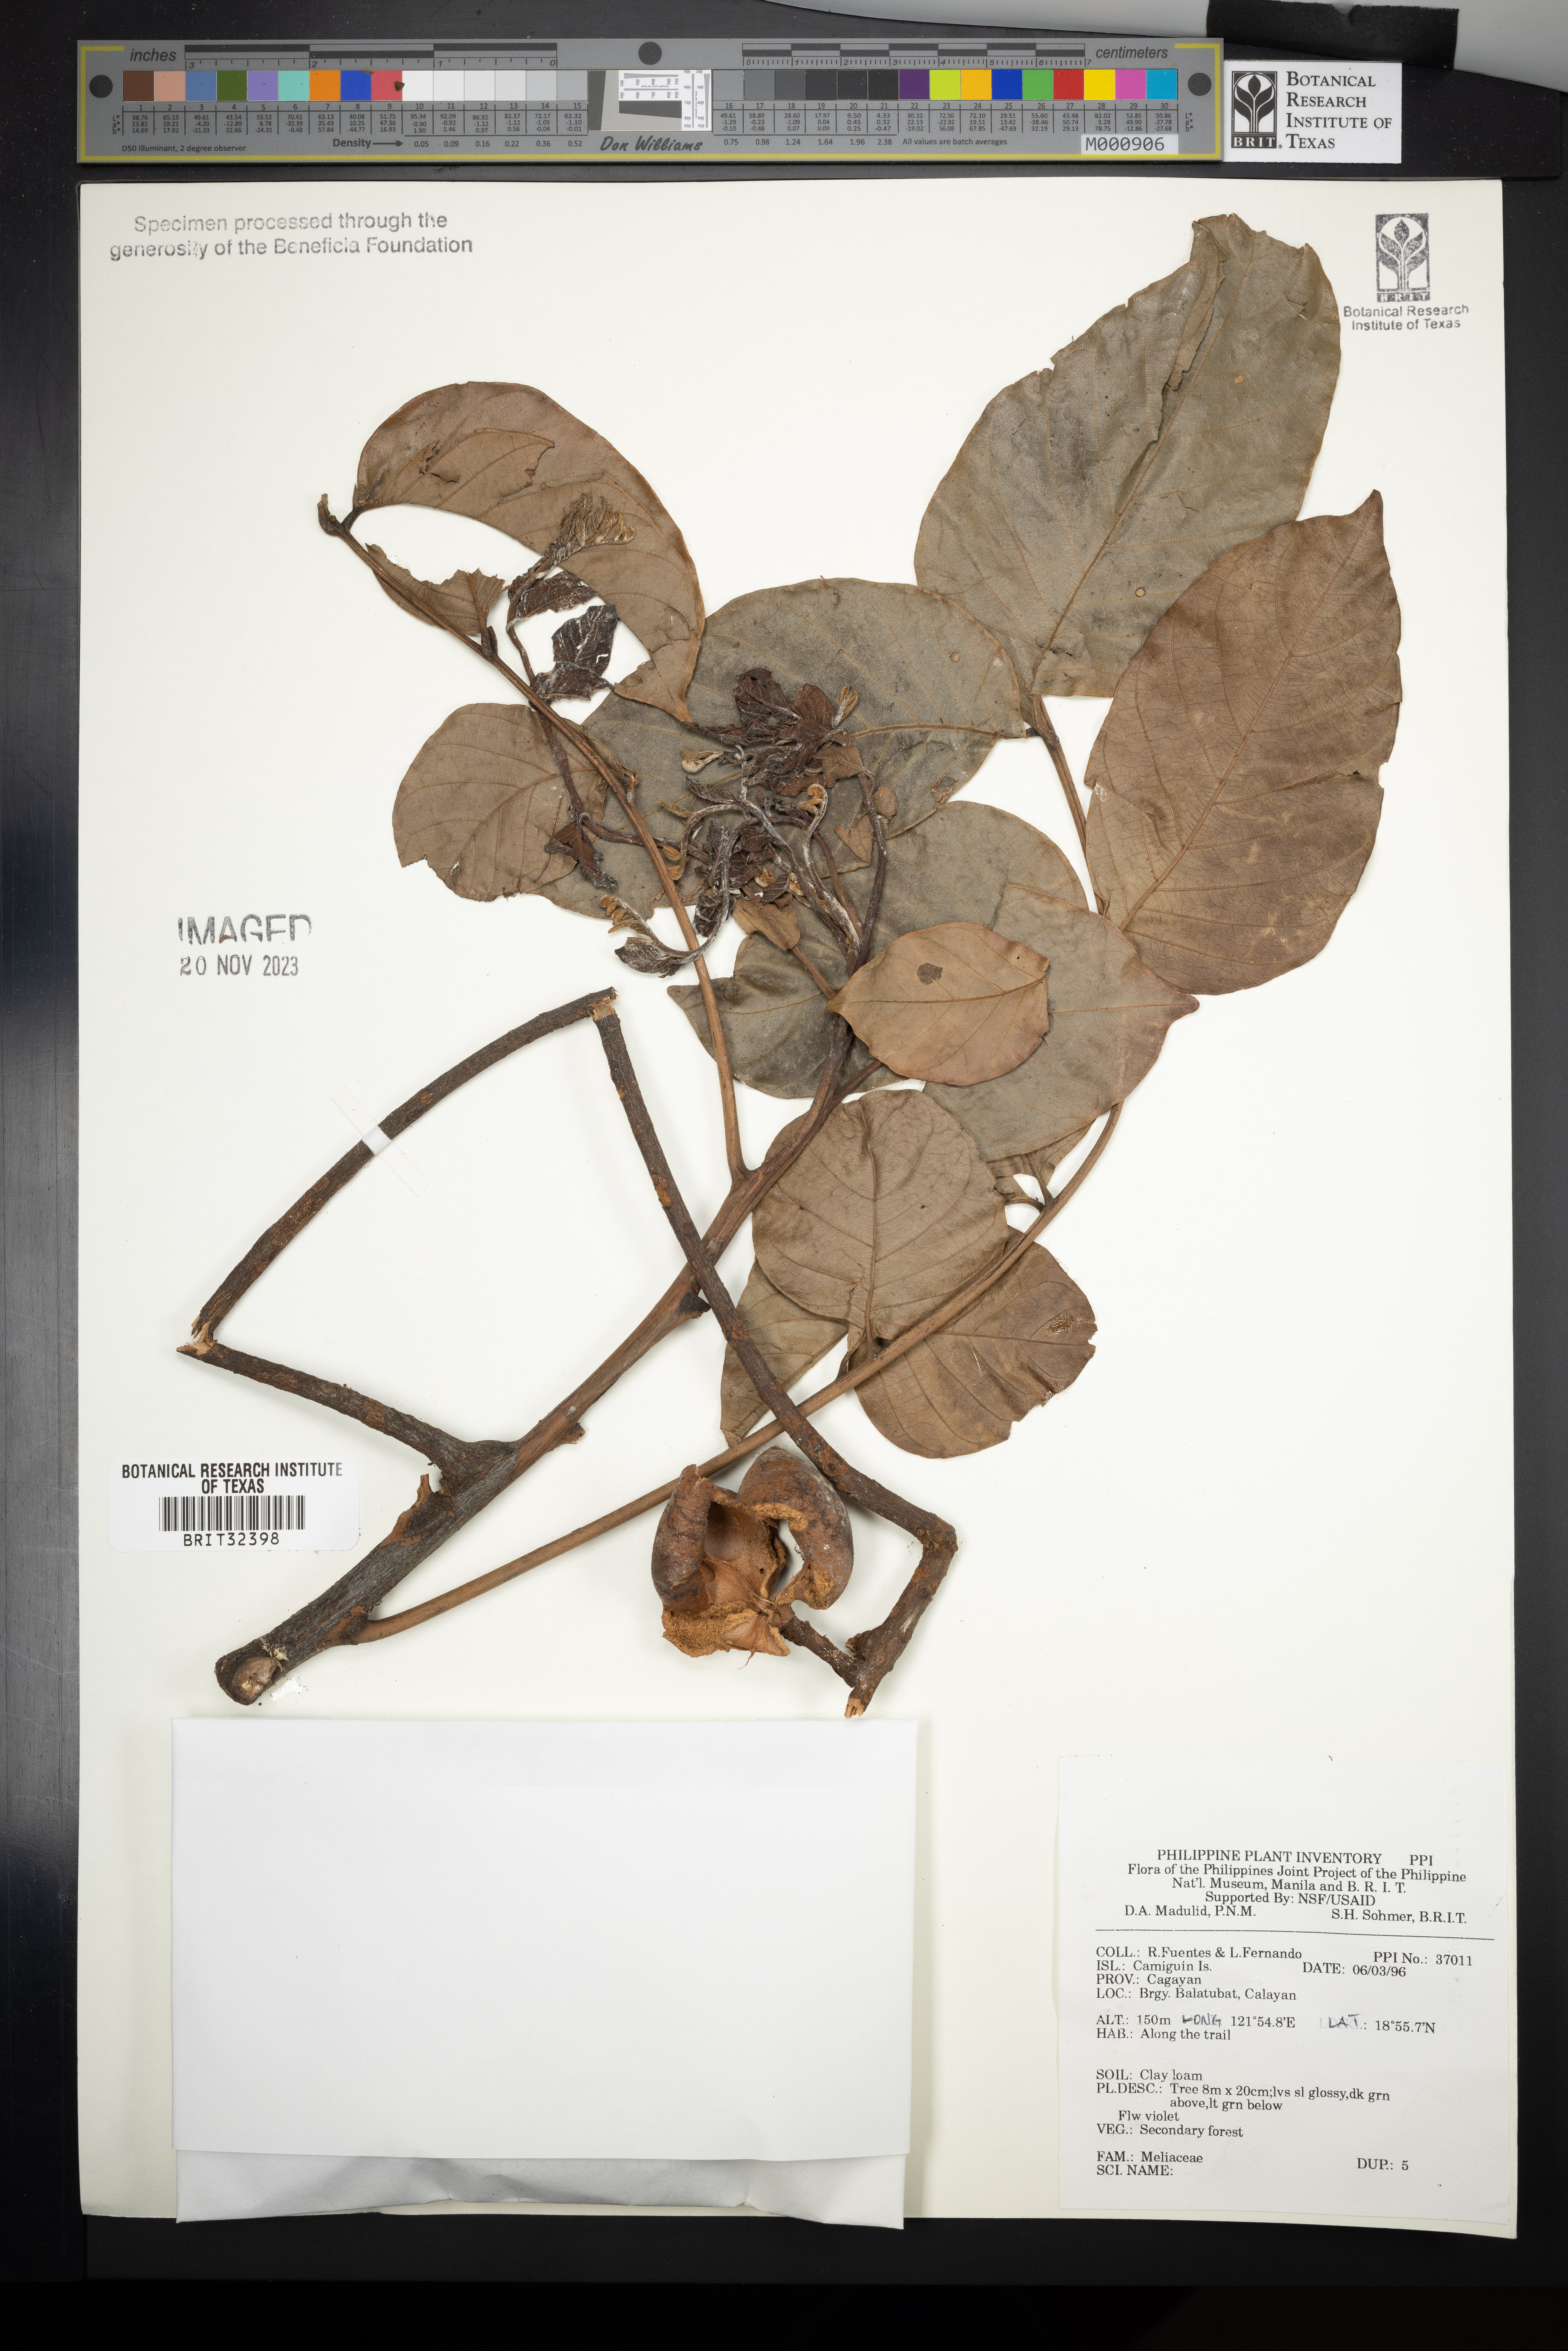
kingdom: Plantae
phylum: Tracheophyta
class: Magnoliopsida
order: Sapindales
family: Meliaceae
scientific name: Meliaceae
